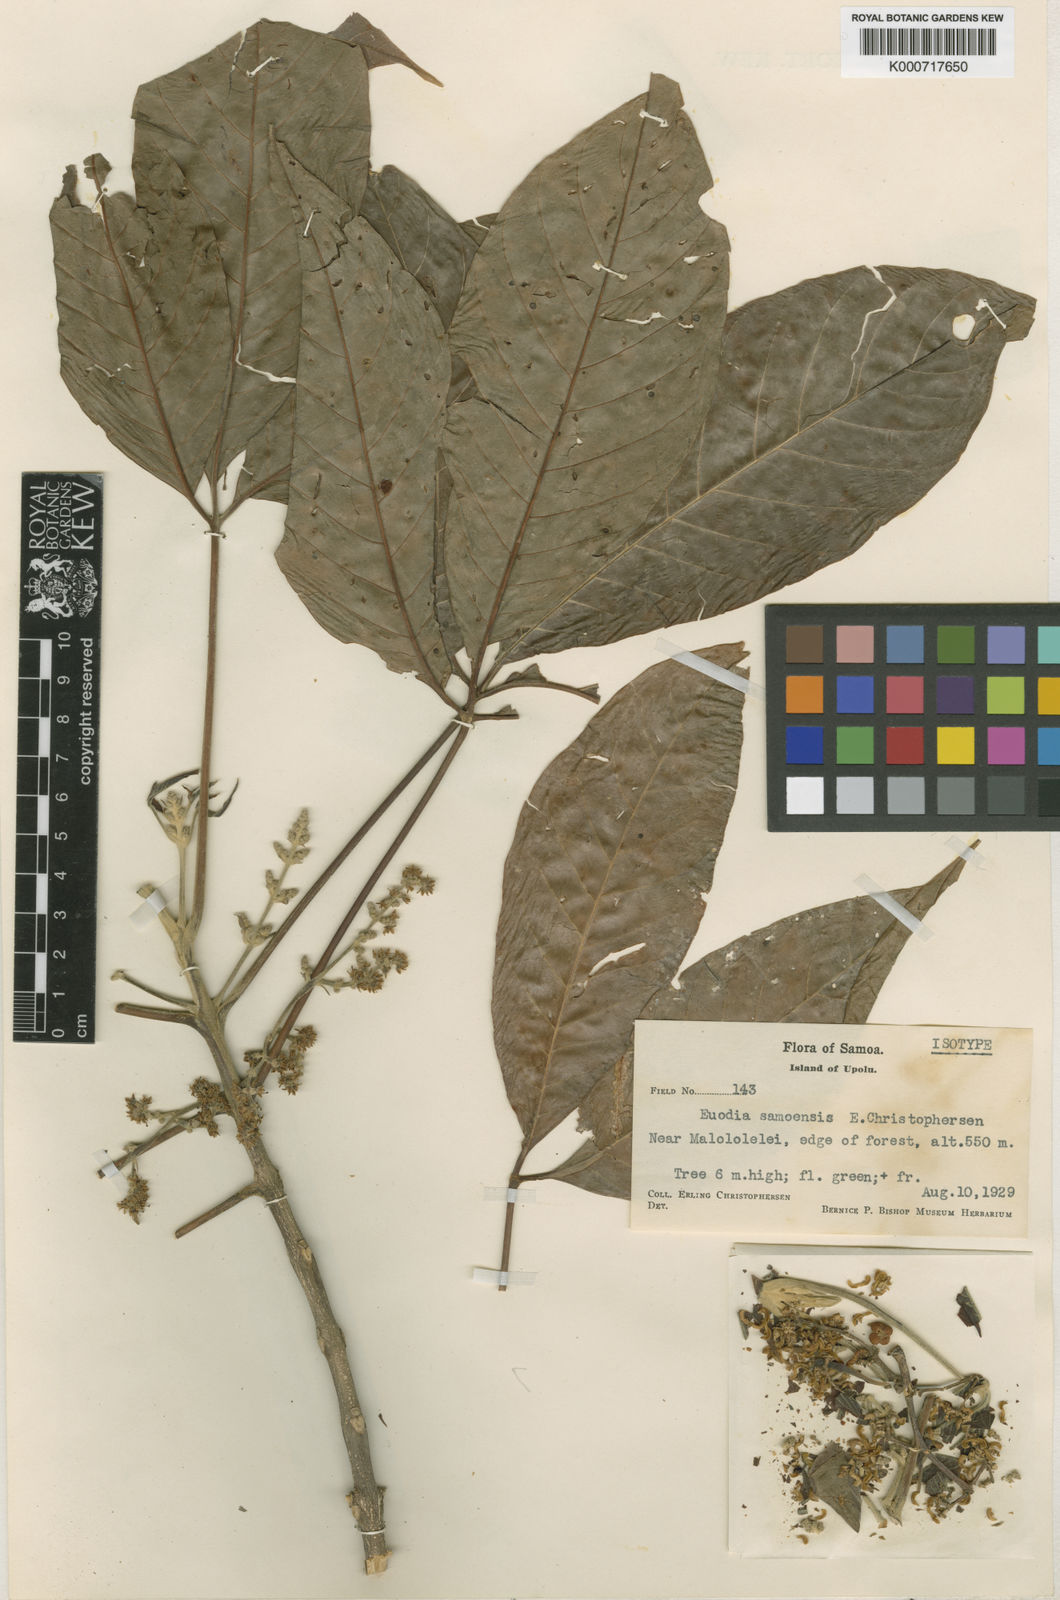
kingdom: Plantae
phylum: Tracheophyta
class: Magnoliopsida
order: Sapindales
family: Rutaceae
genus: Melicope
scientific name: Melicope latifolia
